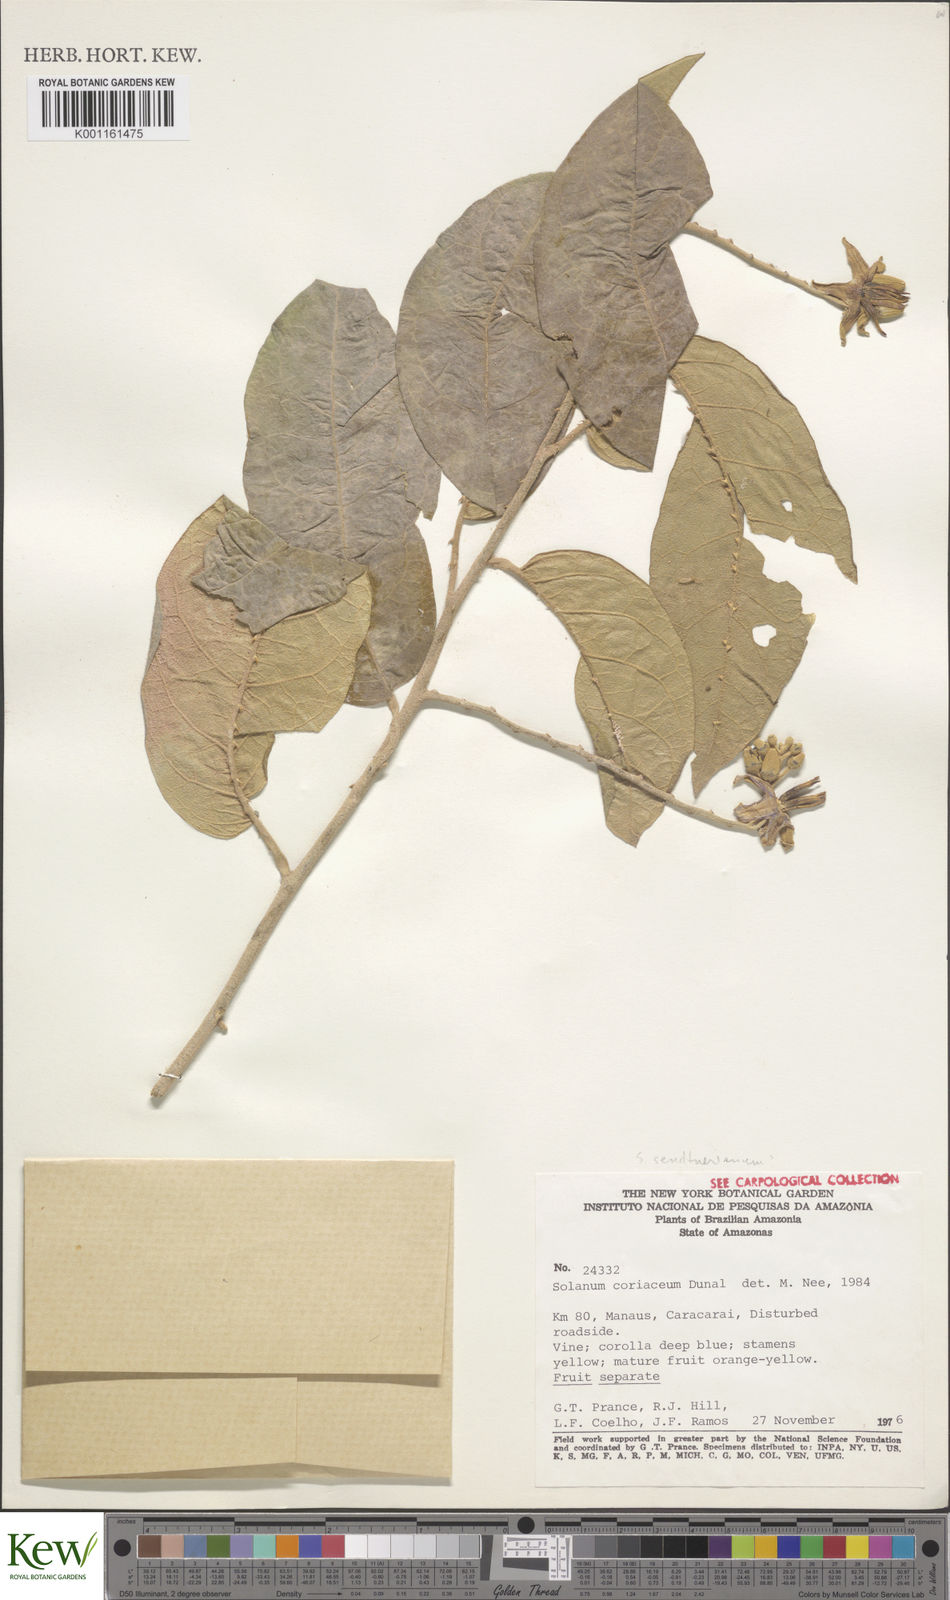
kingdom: Plantae
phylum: Tracheophyta
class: Magnoliopsida
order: Solanales
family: Solanaceae
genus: Solanum
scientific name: Solanum coriaceum
